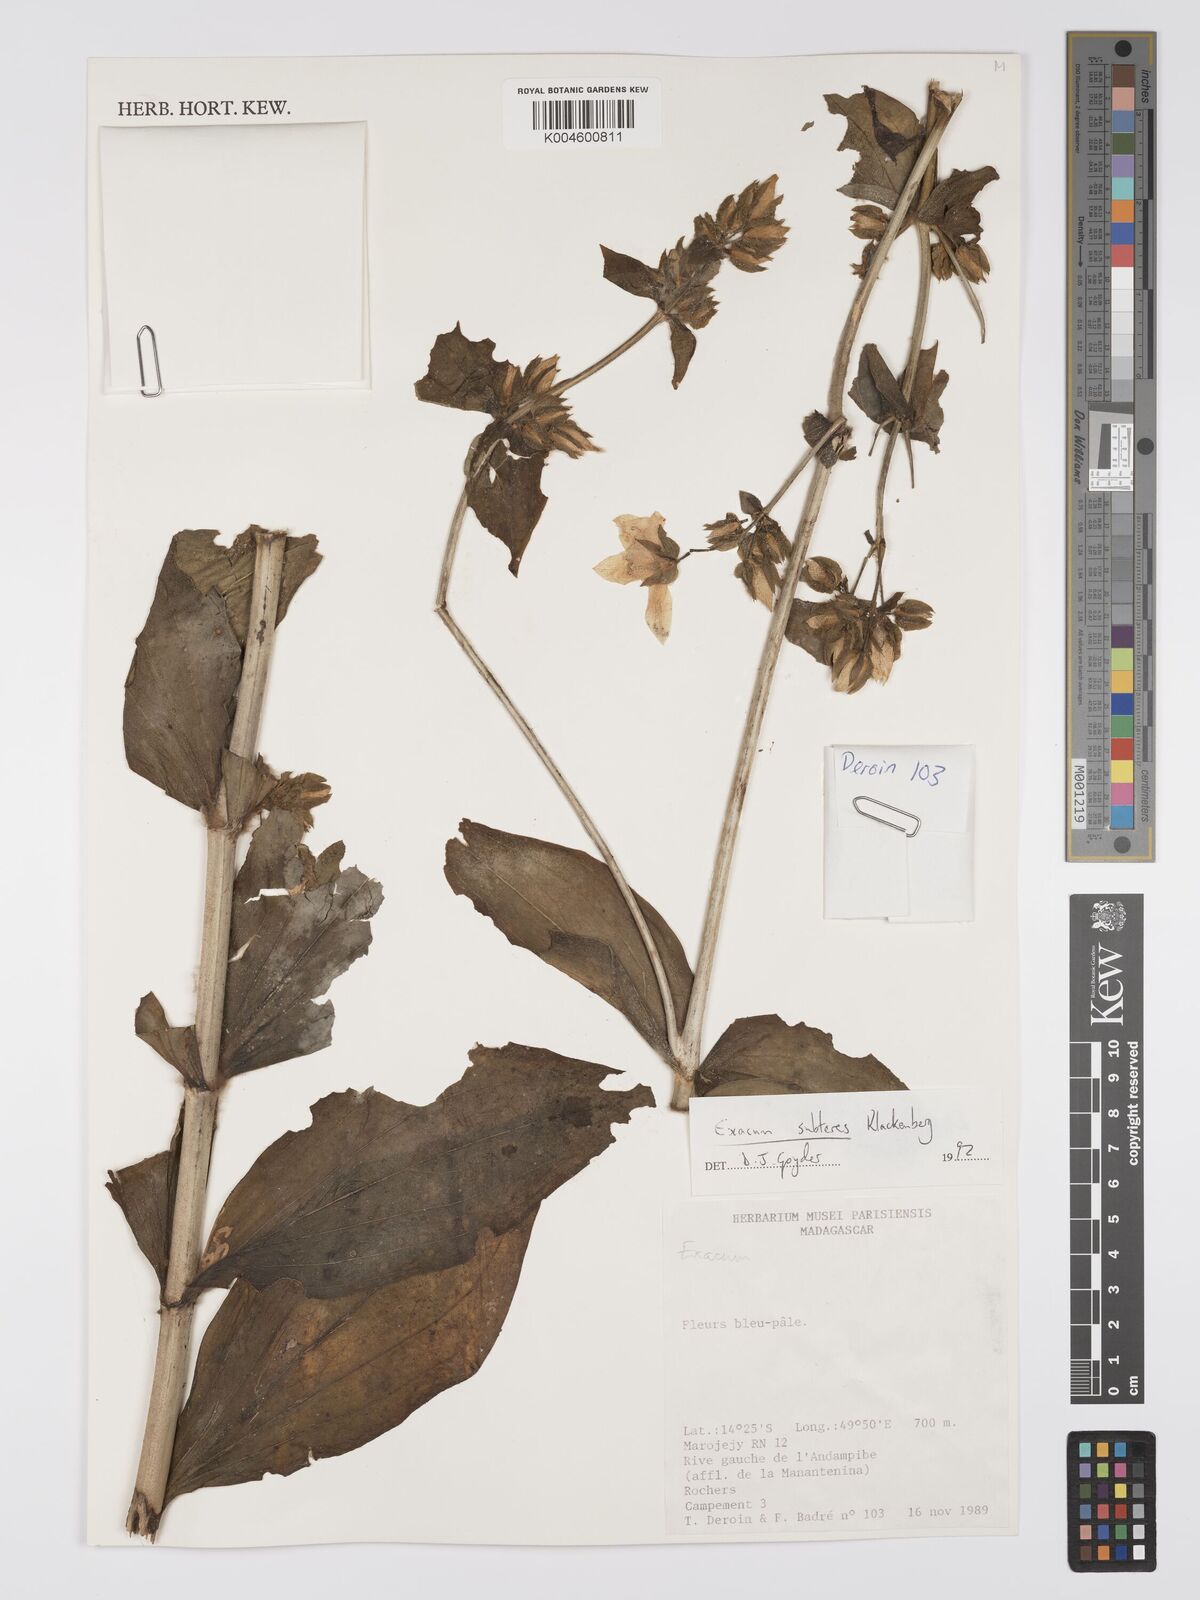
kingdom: Plantae
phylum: Tracheophyta
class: Magnoliopsida
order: Gentianales
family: Gentianaceae
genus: Exacum
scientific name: Exacum subteres
